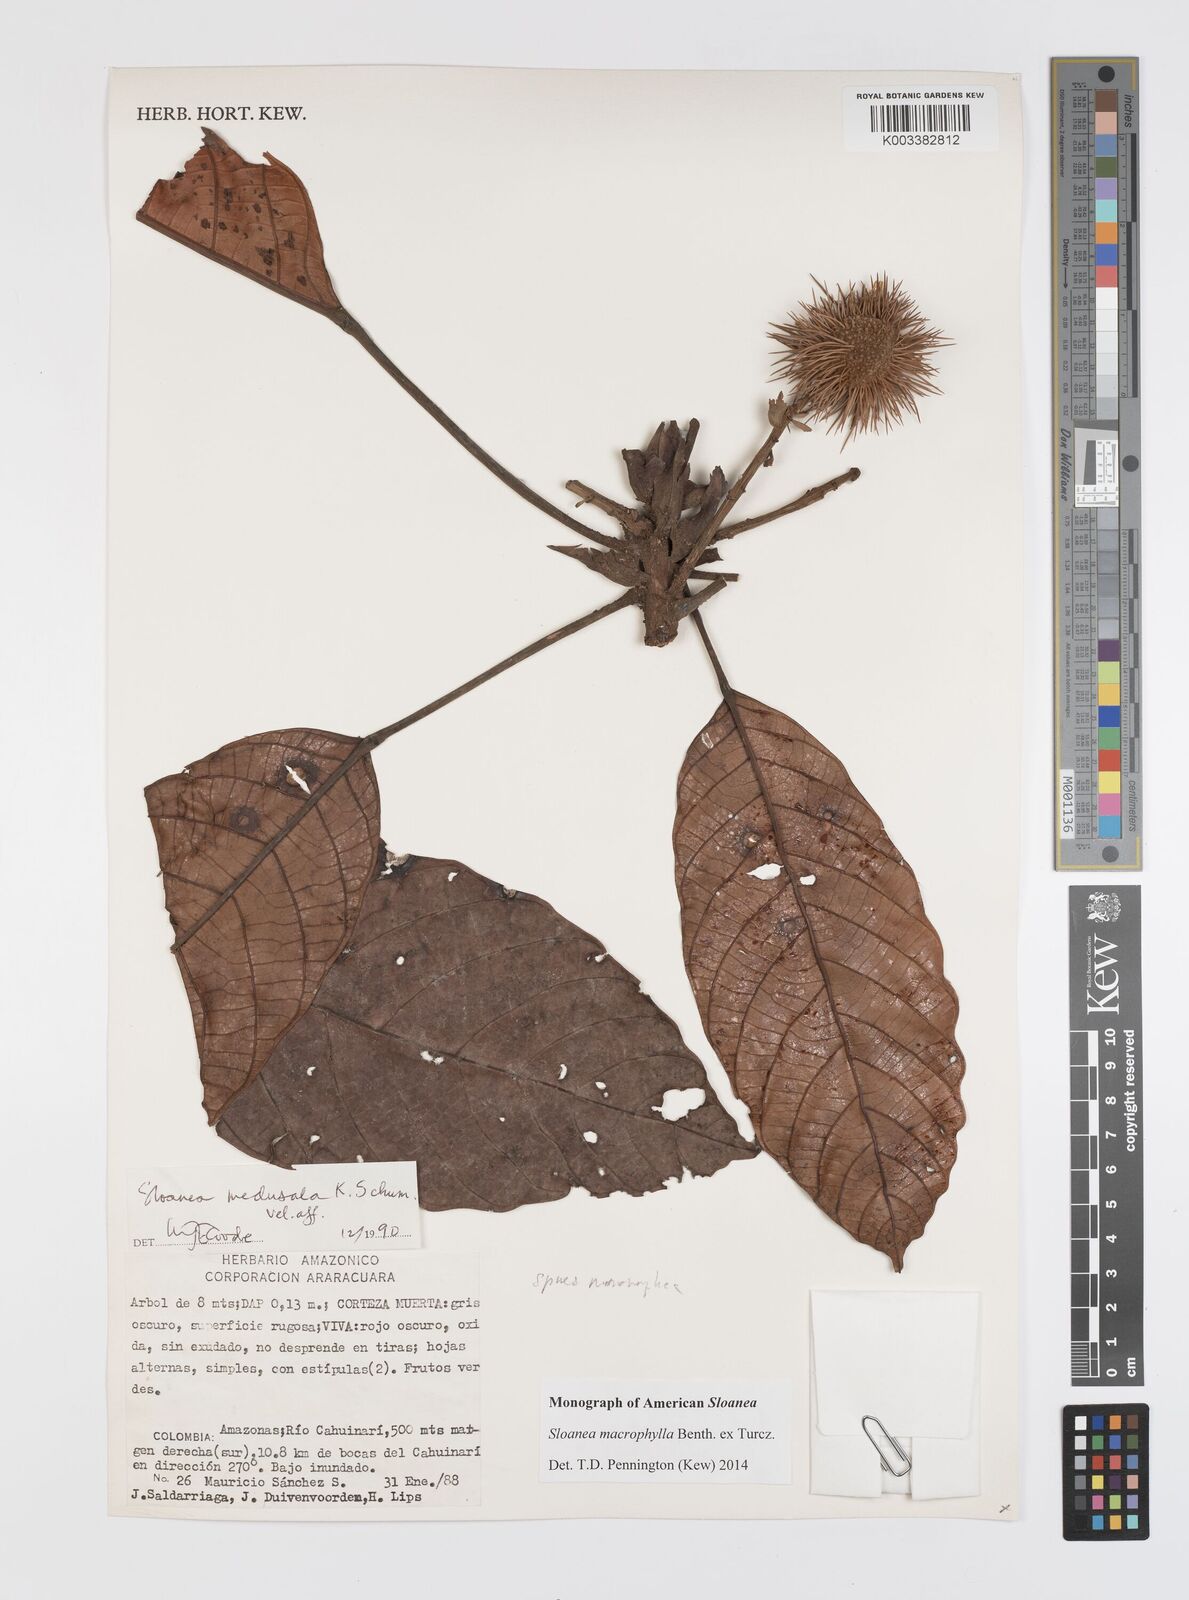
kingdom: Plantae
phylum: Tracheophyta
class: Magnoliopsida
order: Oxalidales
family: Elaeocarpaceae
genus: Sloanea
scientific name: Sloanea macrophylla
